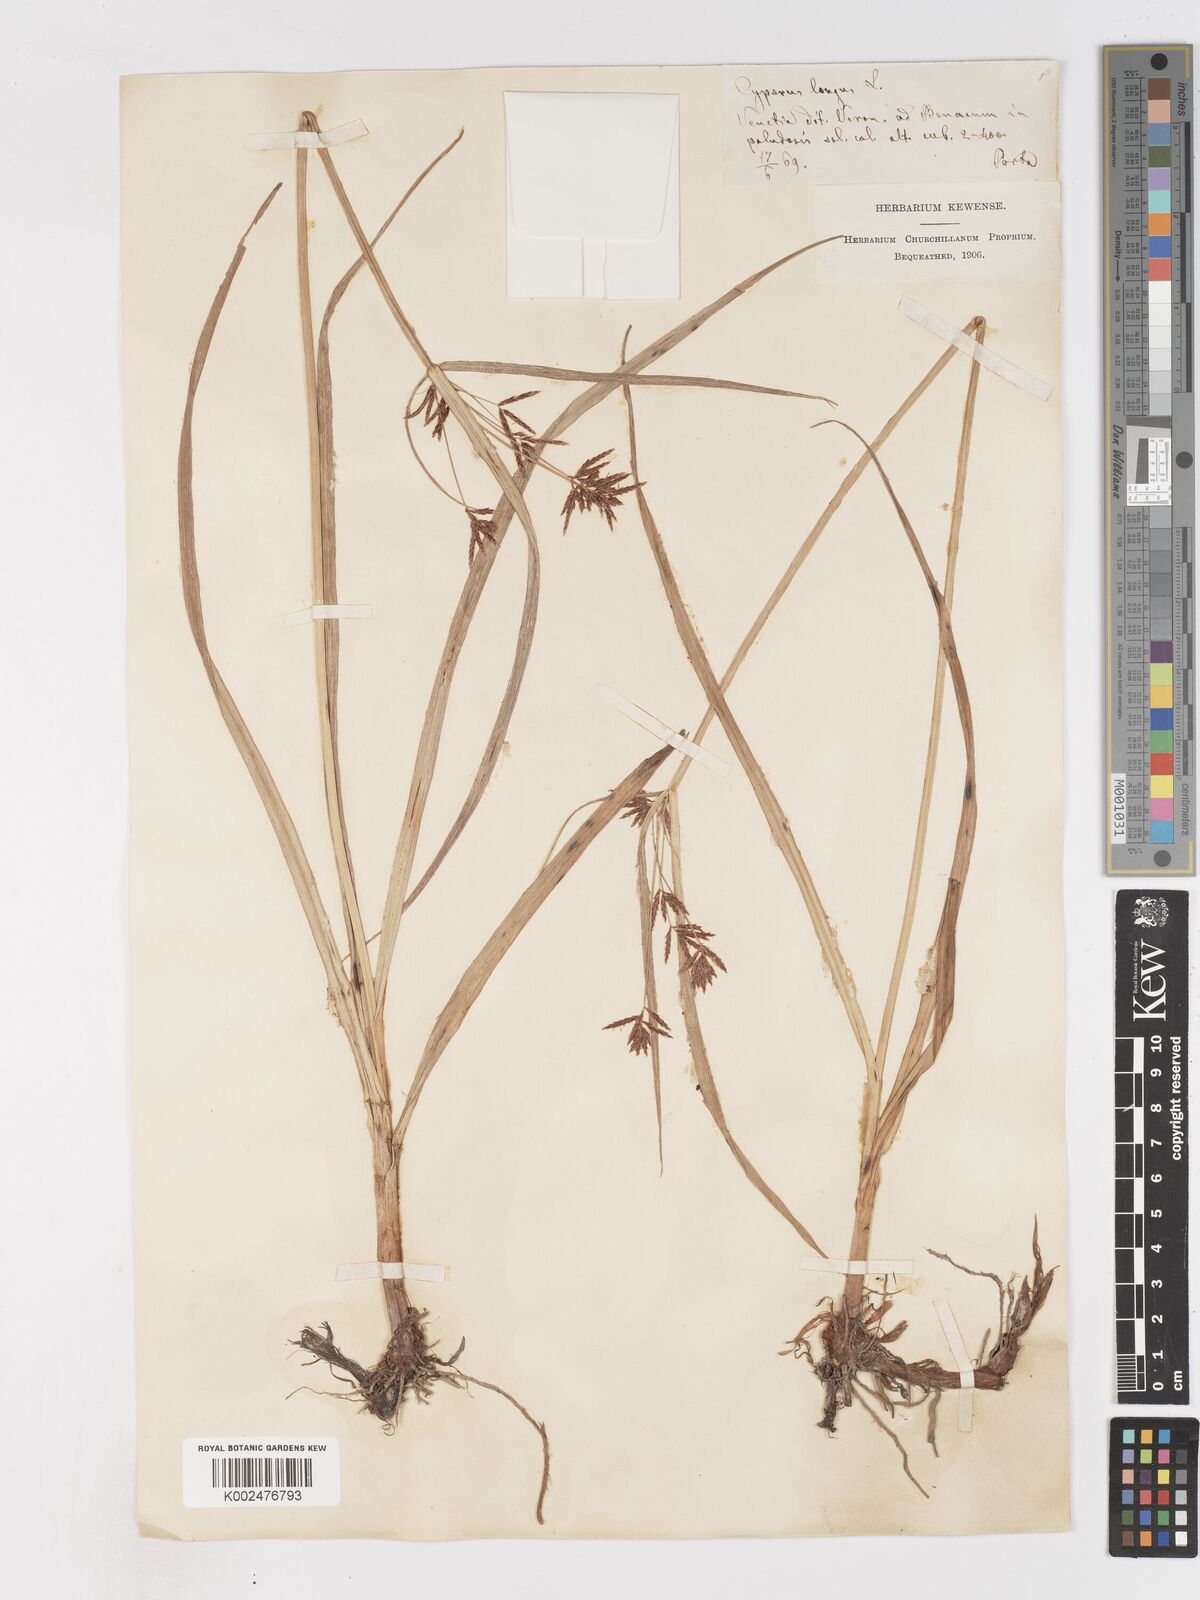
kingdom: Plantae
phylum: Tracheophyta
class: Liliopsida
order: Poales
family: Cyperaceae
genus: Cyperus
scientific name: Cyperus longus
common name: Galingale
